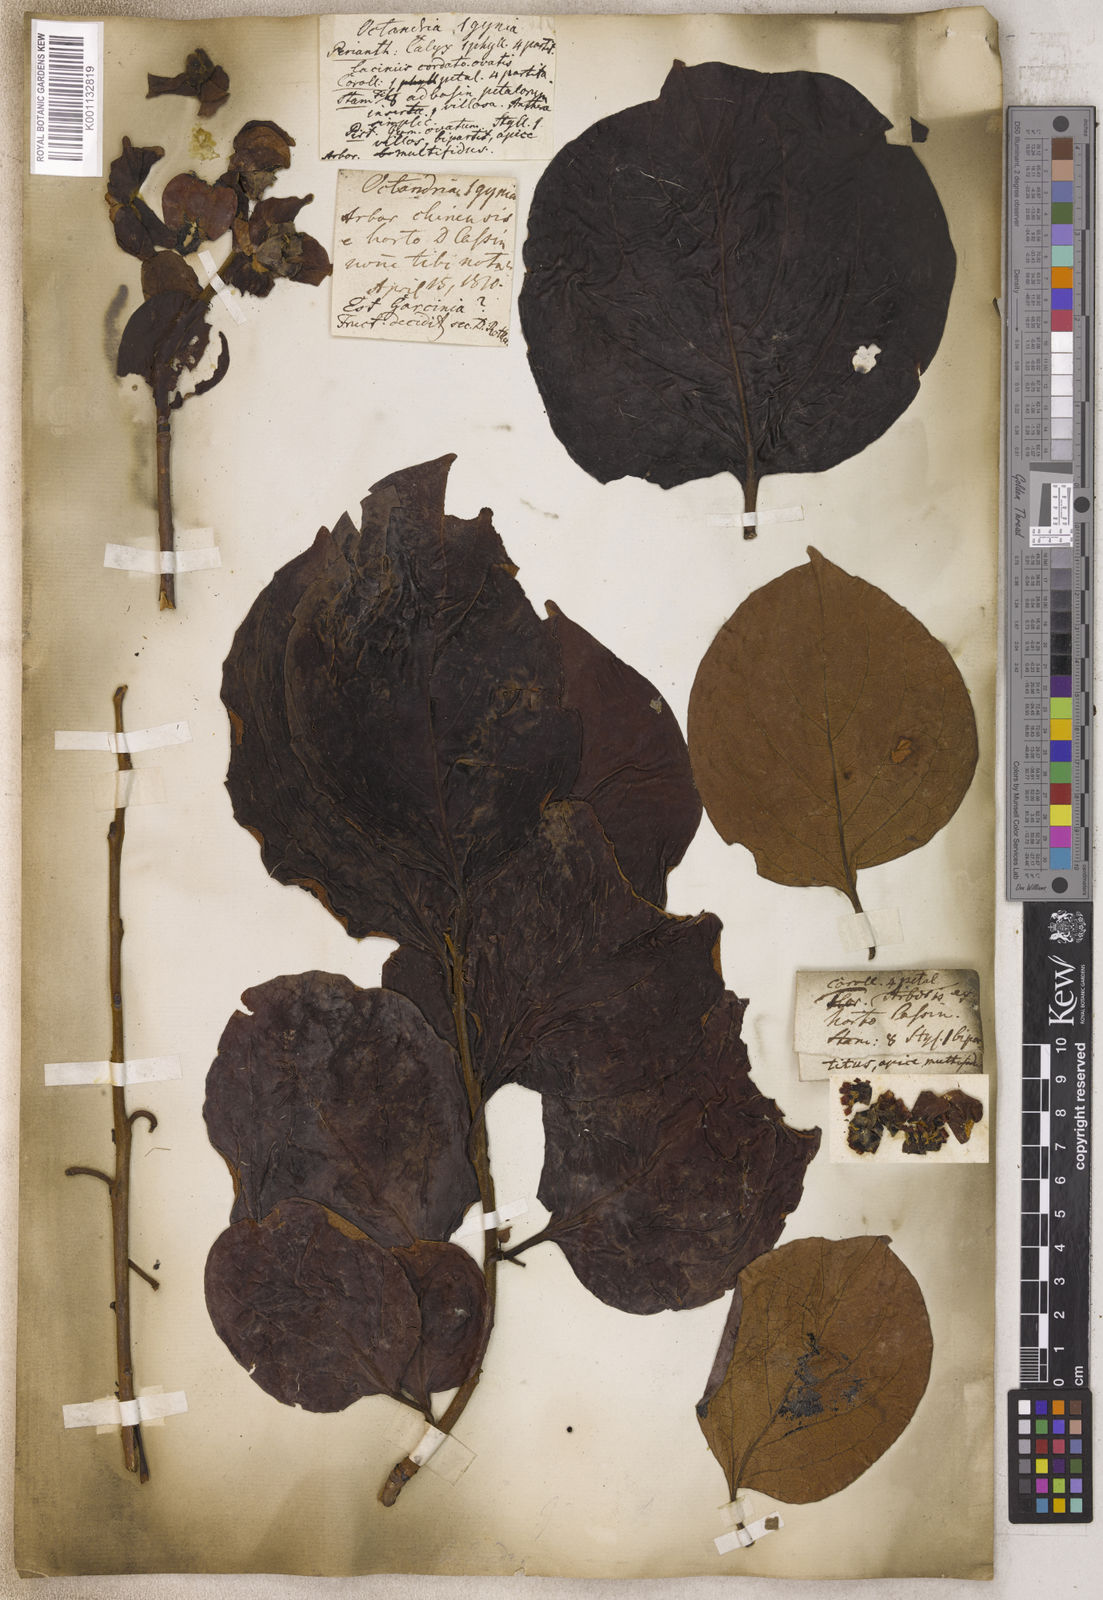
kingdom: Plantae
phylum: Tracheophyta
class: Magnoliopsida
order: Malpighiales
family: Clusiaceae
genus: Garcinia
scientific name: Garcinia
